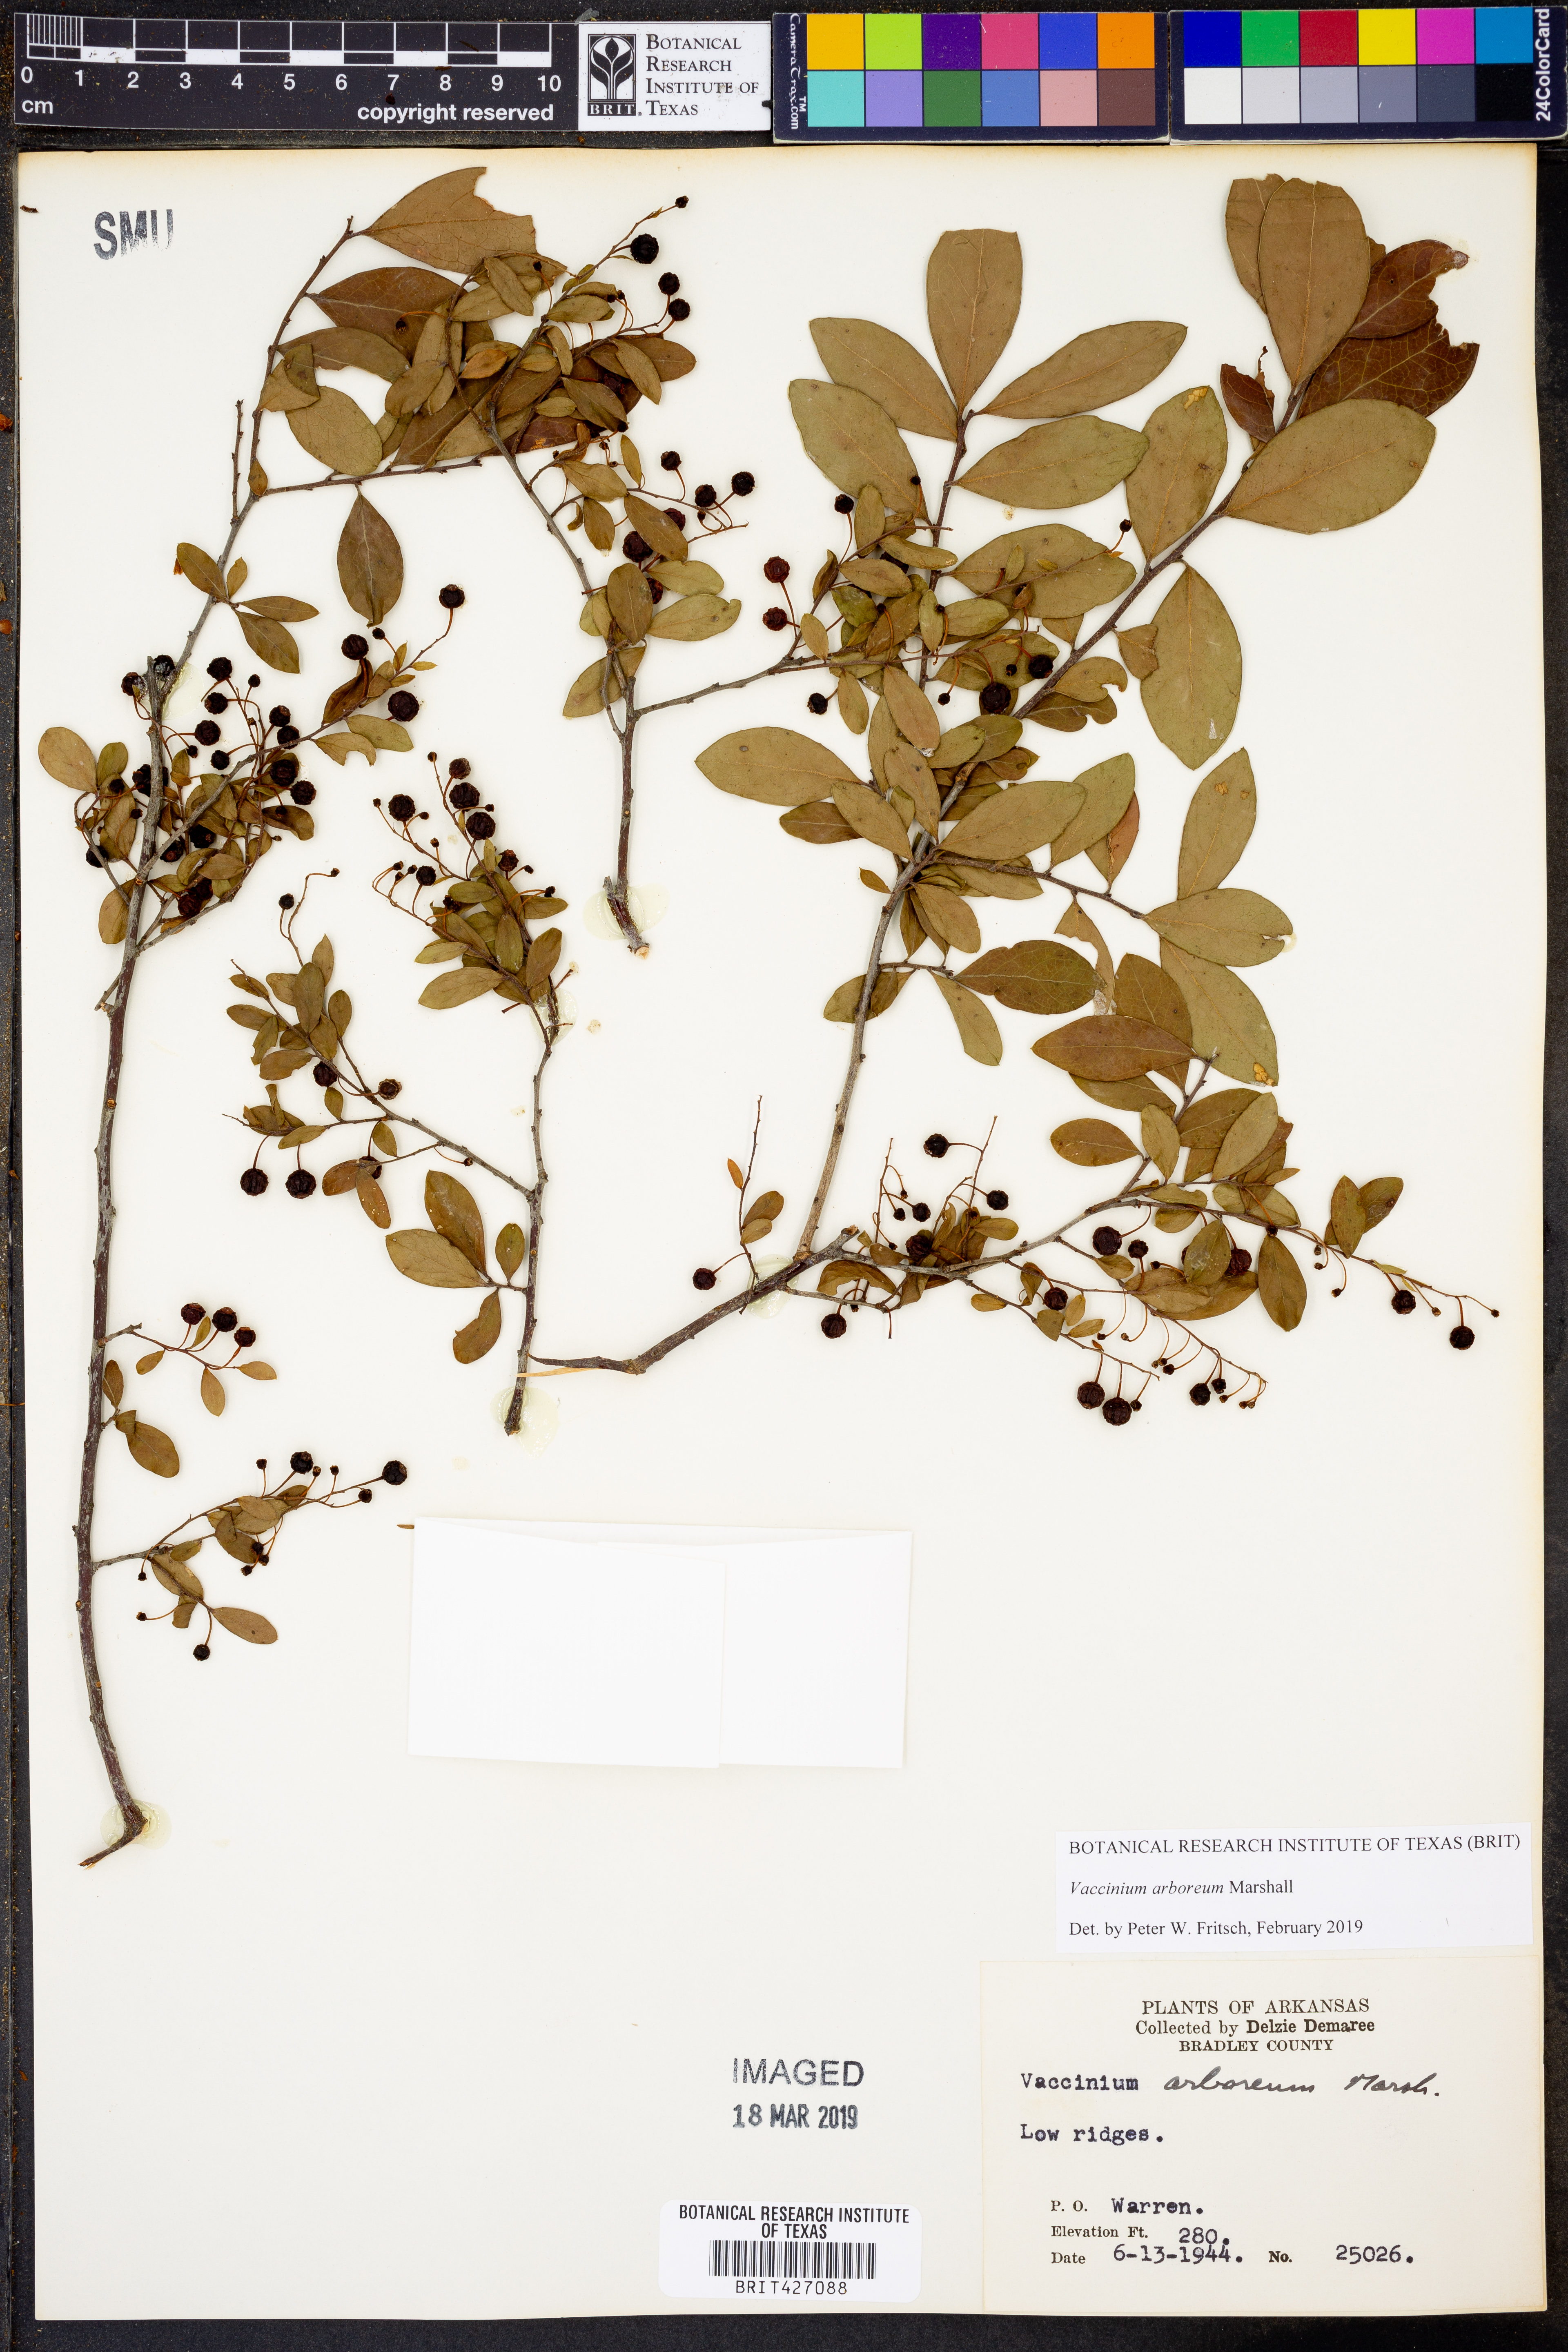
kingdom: Plantae
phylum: Tracheophyta
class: Magnoliopsida
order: Ericales
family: Ericaceae
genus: Vaccinium
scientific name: Vaccinium arboreum
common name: Farkleberry
